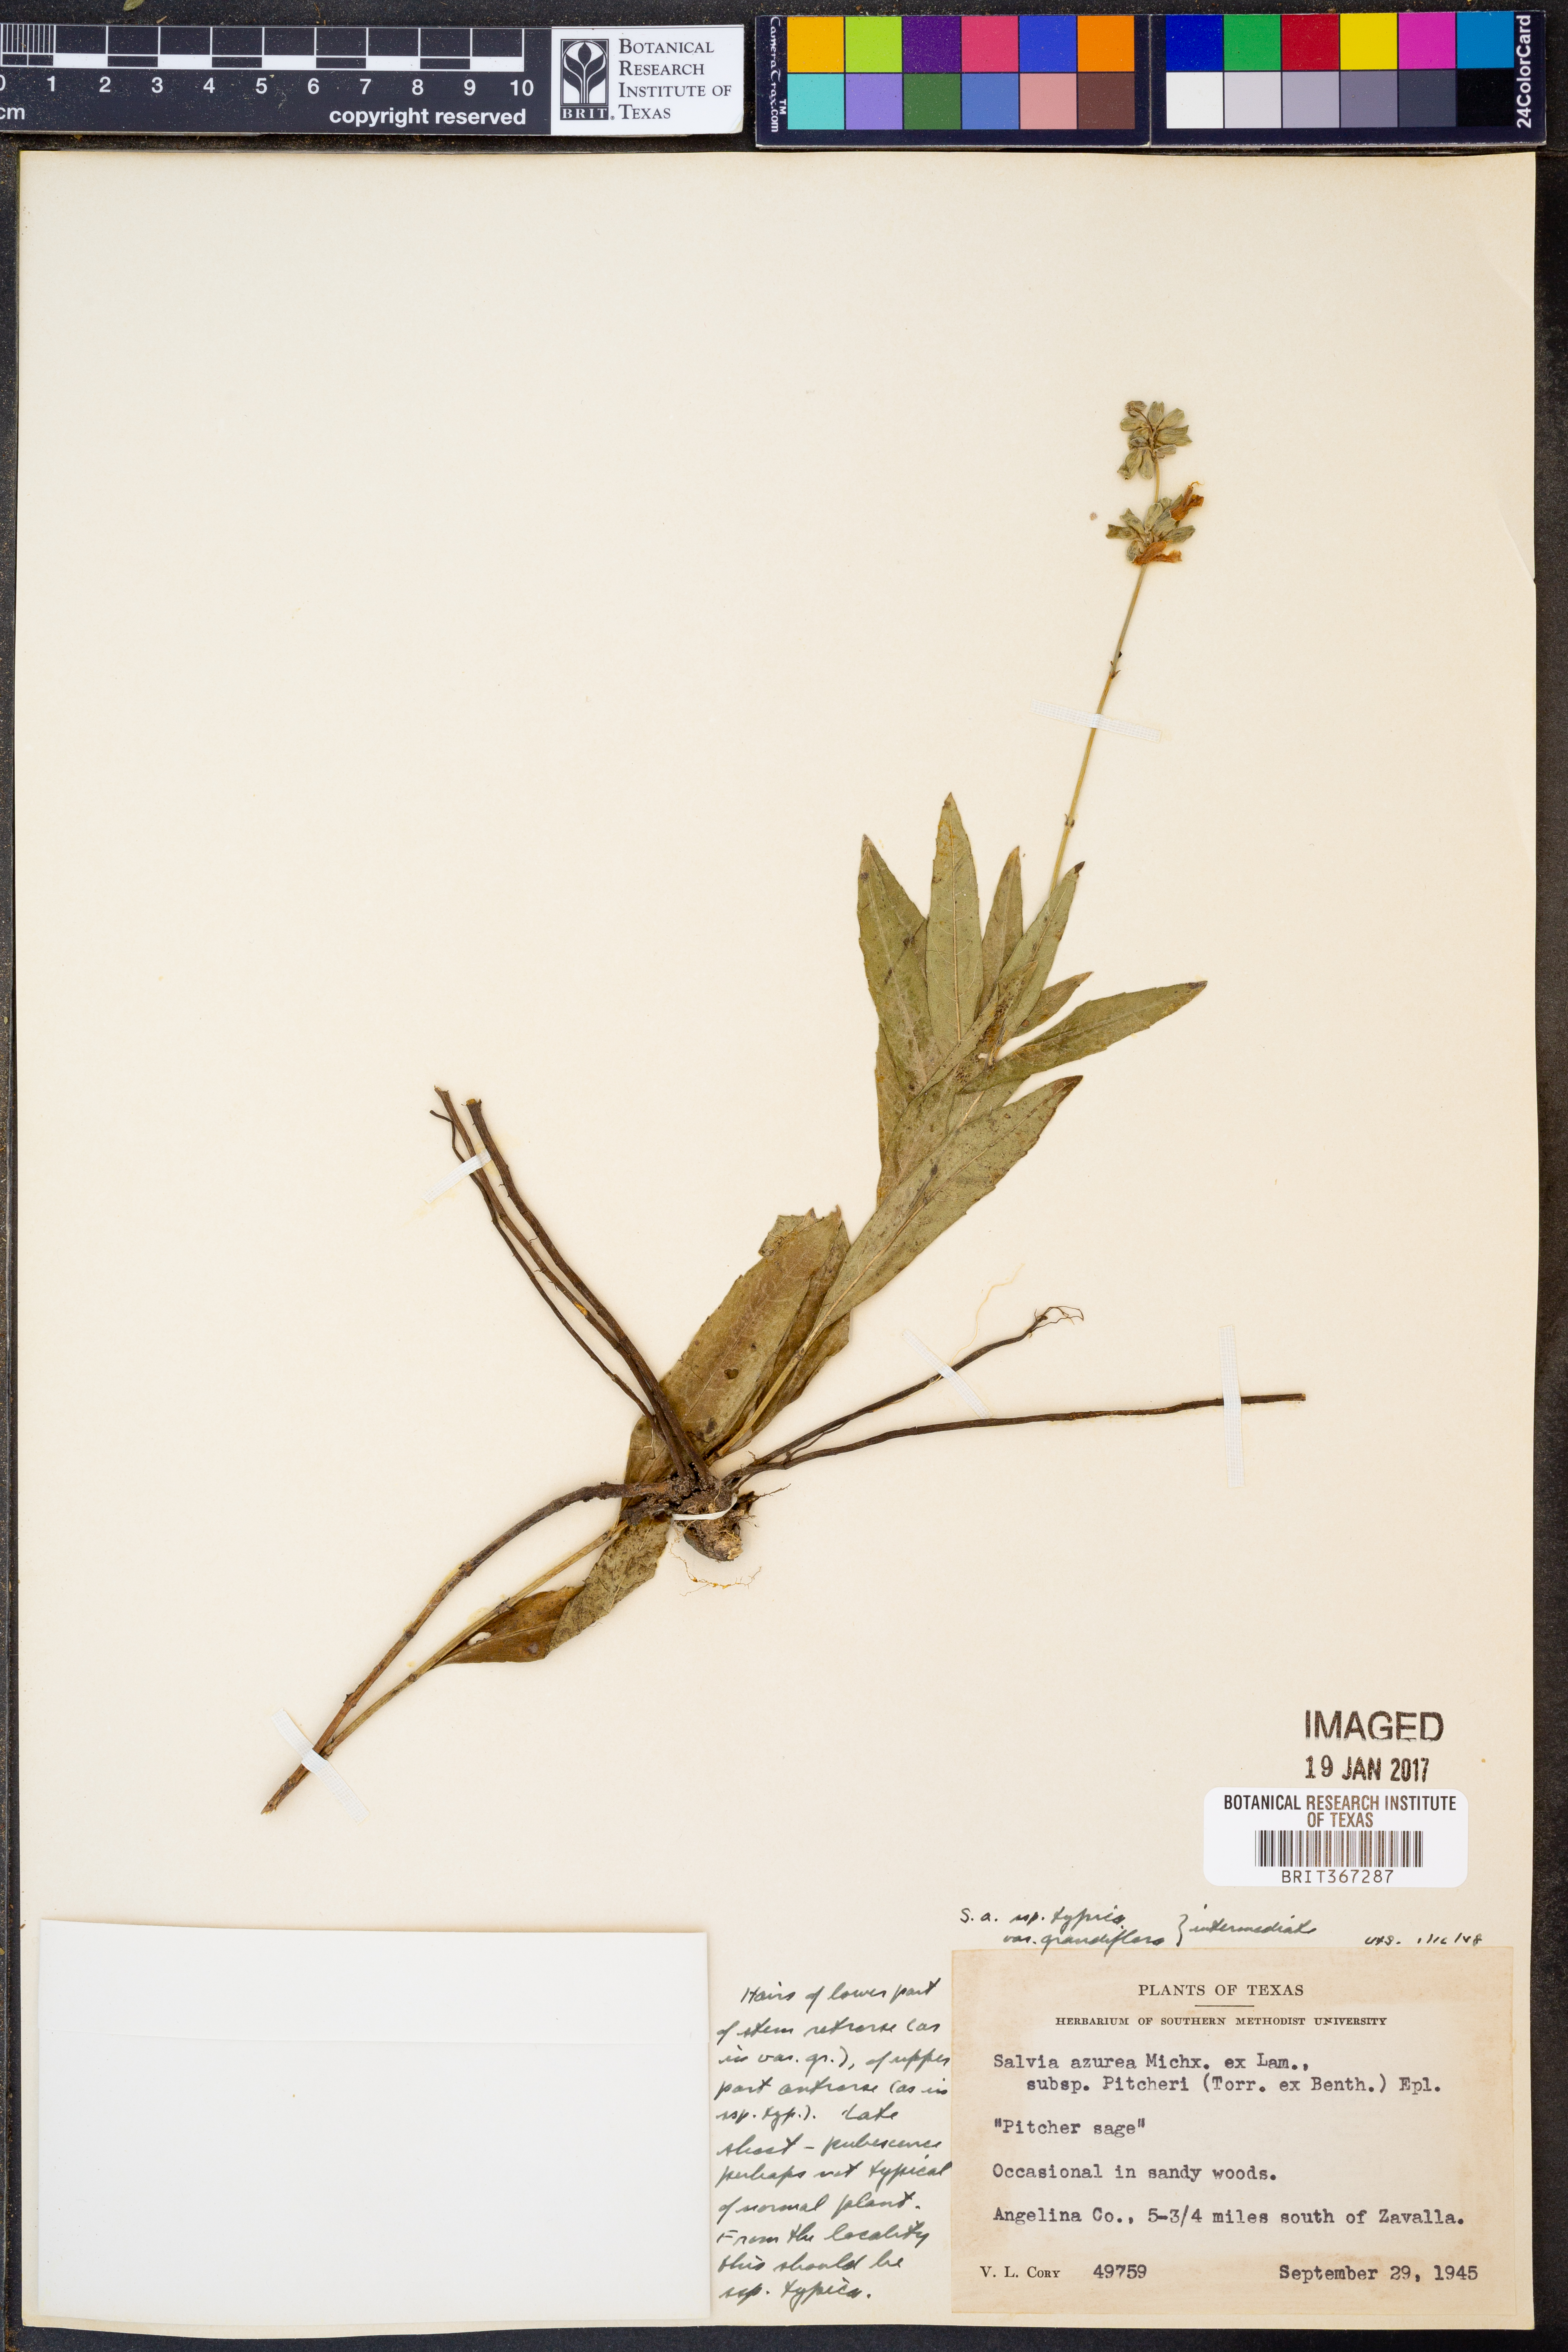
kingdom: Plantae
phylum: Tracheophyta
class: Magnoliopsida
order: Lamiales
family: Lamiaceae
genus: Salvia
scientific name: Salvia azurea
